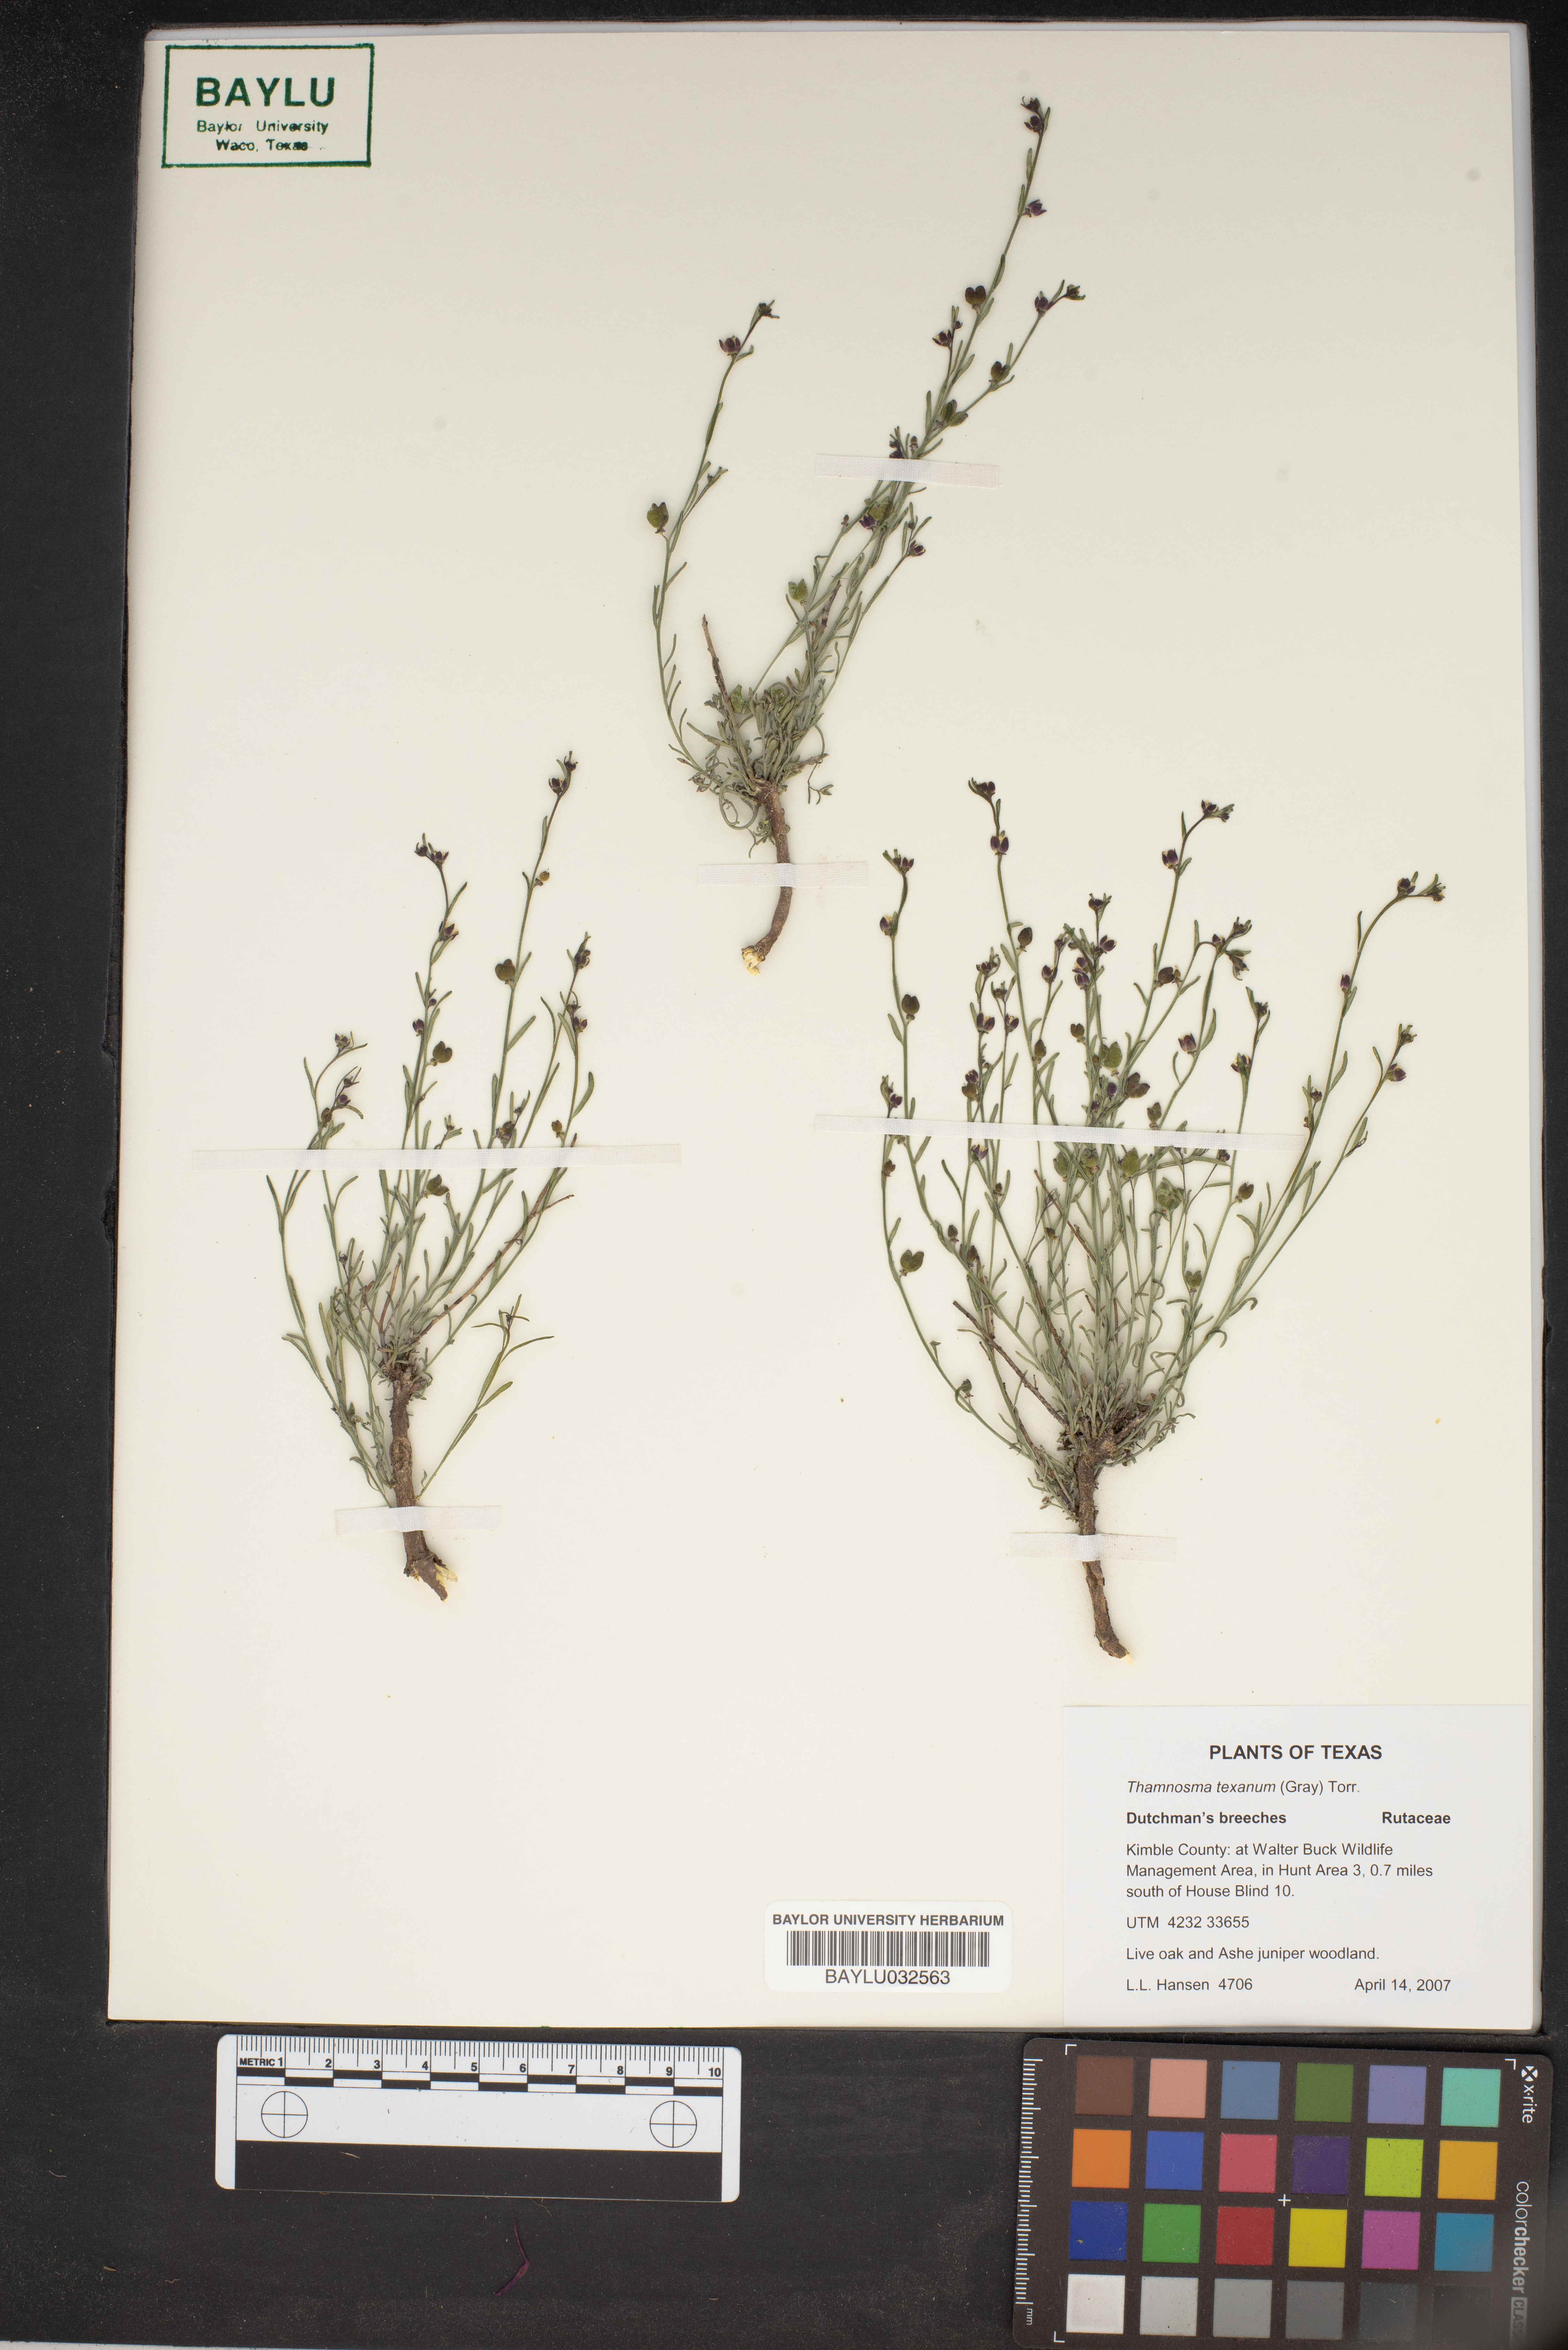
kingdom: Plantae
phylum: Tracheophyta
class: Magnoliopsida
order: Sapindales
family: Rutaceae
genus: Thamnosma
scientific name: Thamnosma texana
